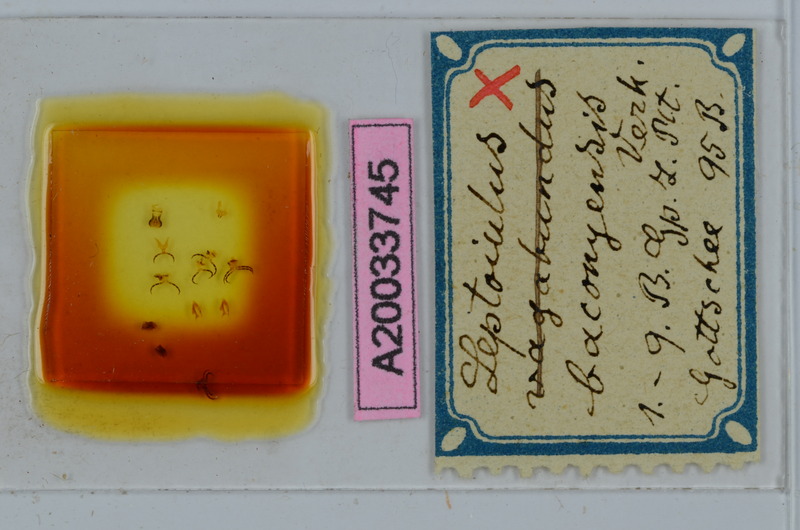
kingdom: Animalia
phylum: Arthropoda
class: Diplopoda
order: Julida
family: Julidae
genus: Leptoiulus
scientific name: Leptoiulus baconyensis
